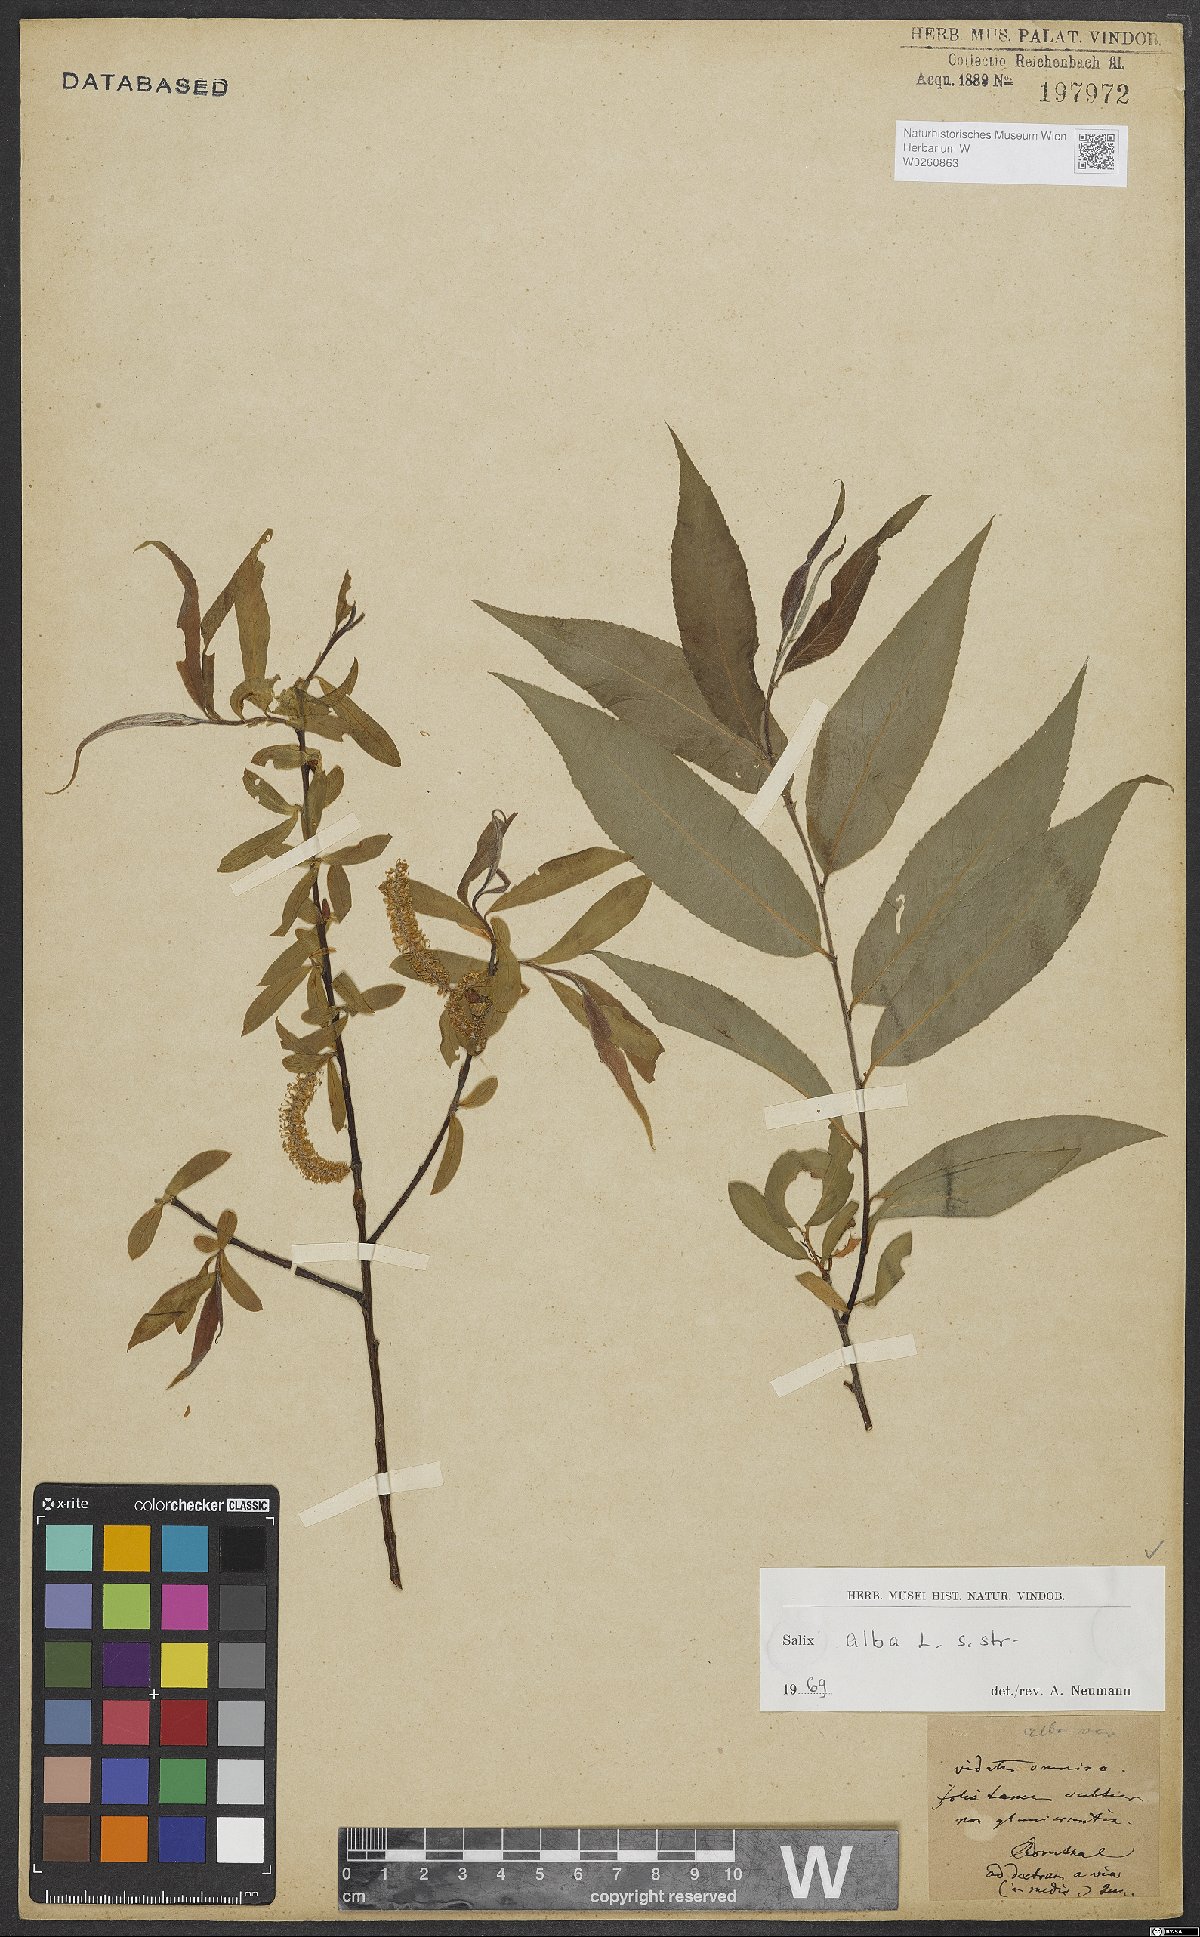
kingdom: Plantae
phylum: Tracheophyta
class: Magnoliopsida
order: Malpighiales
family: Salicaceae
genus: Salix
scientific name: Salix alba
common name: White willow
